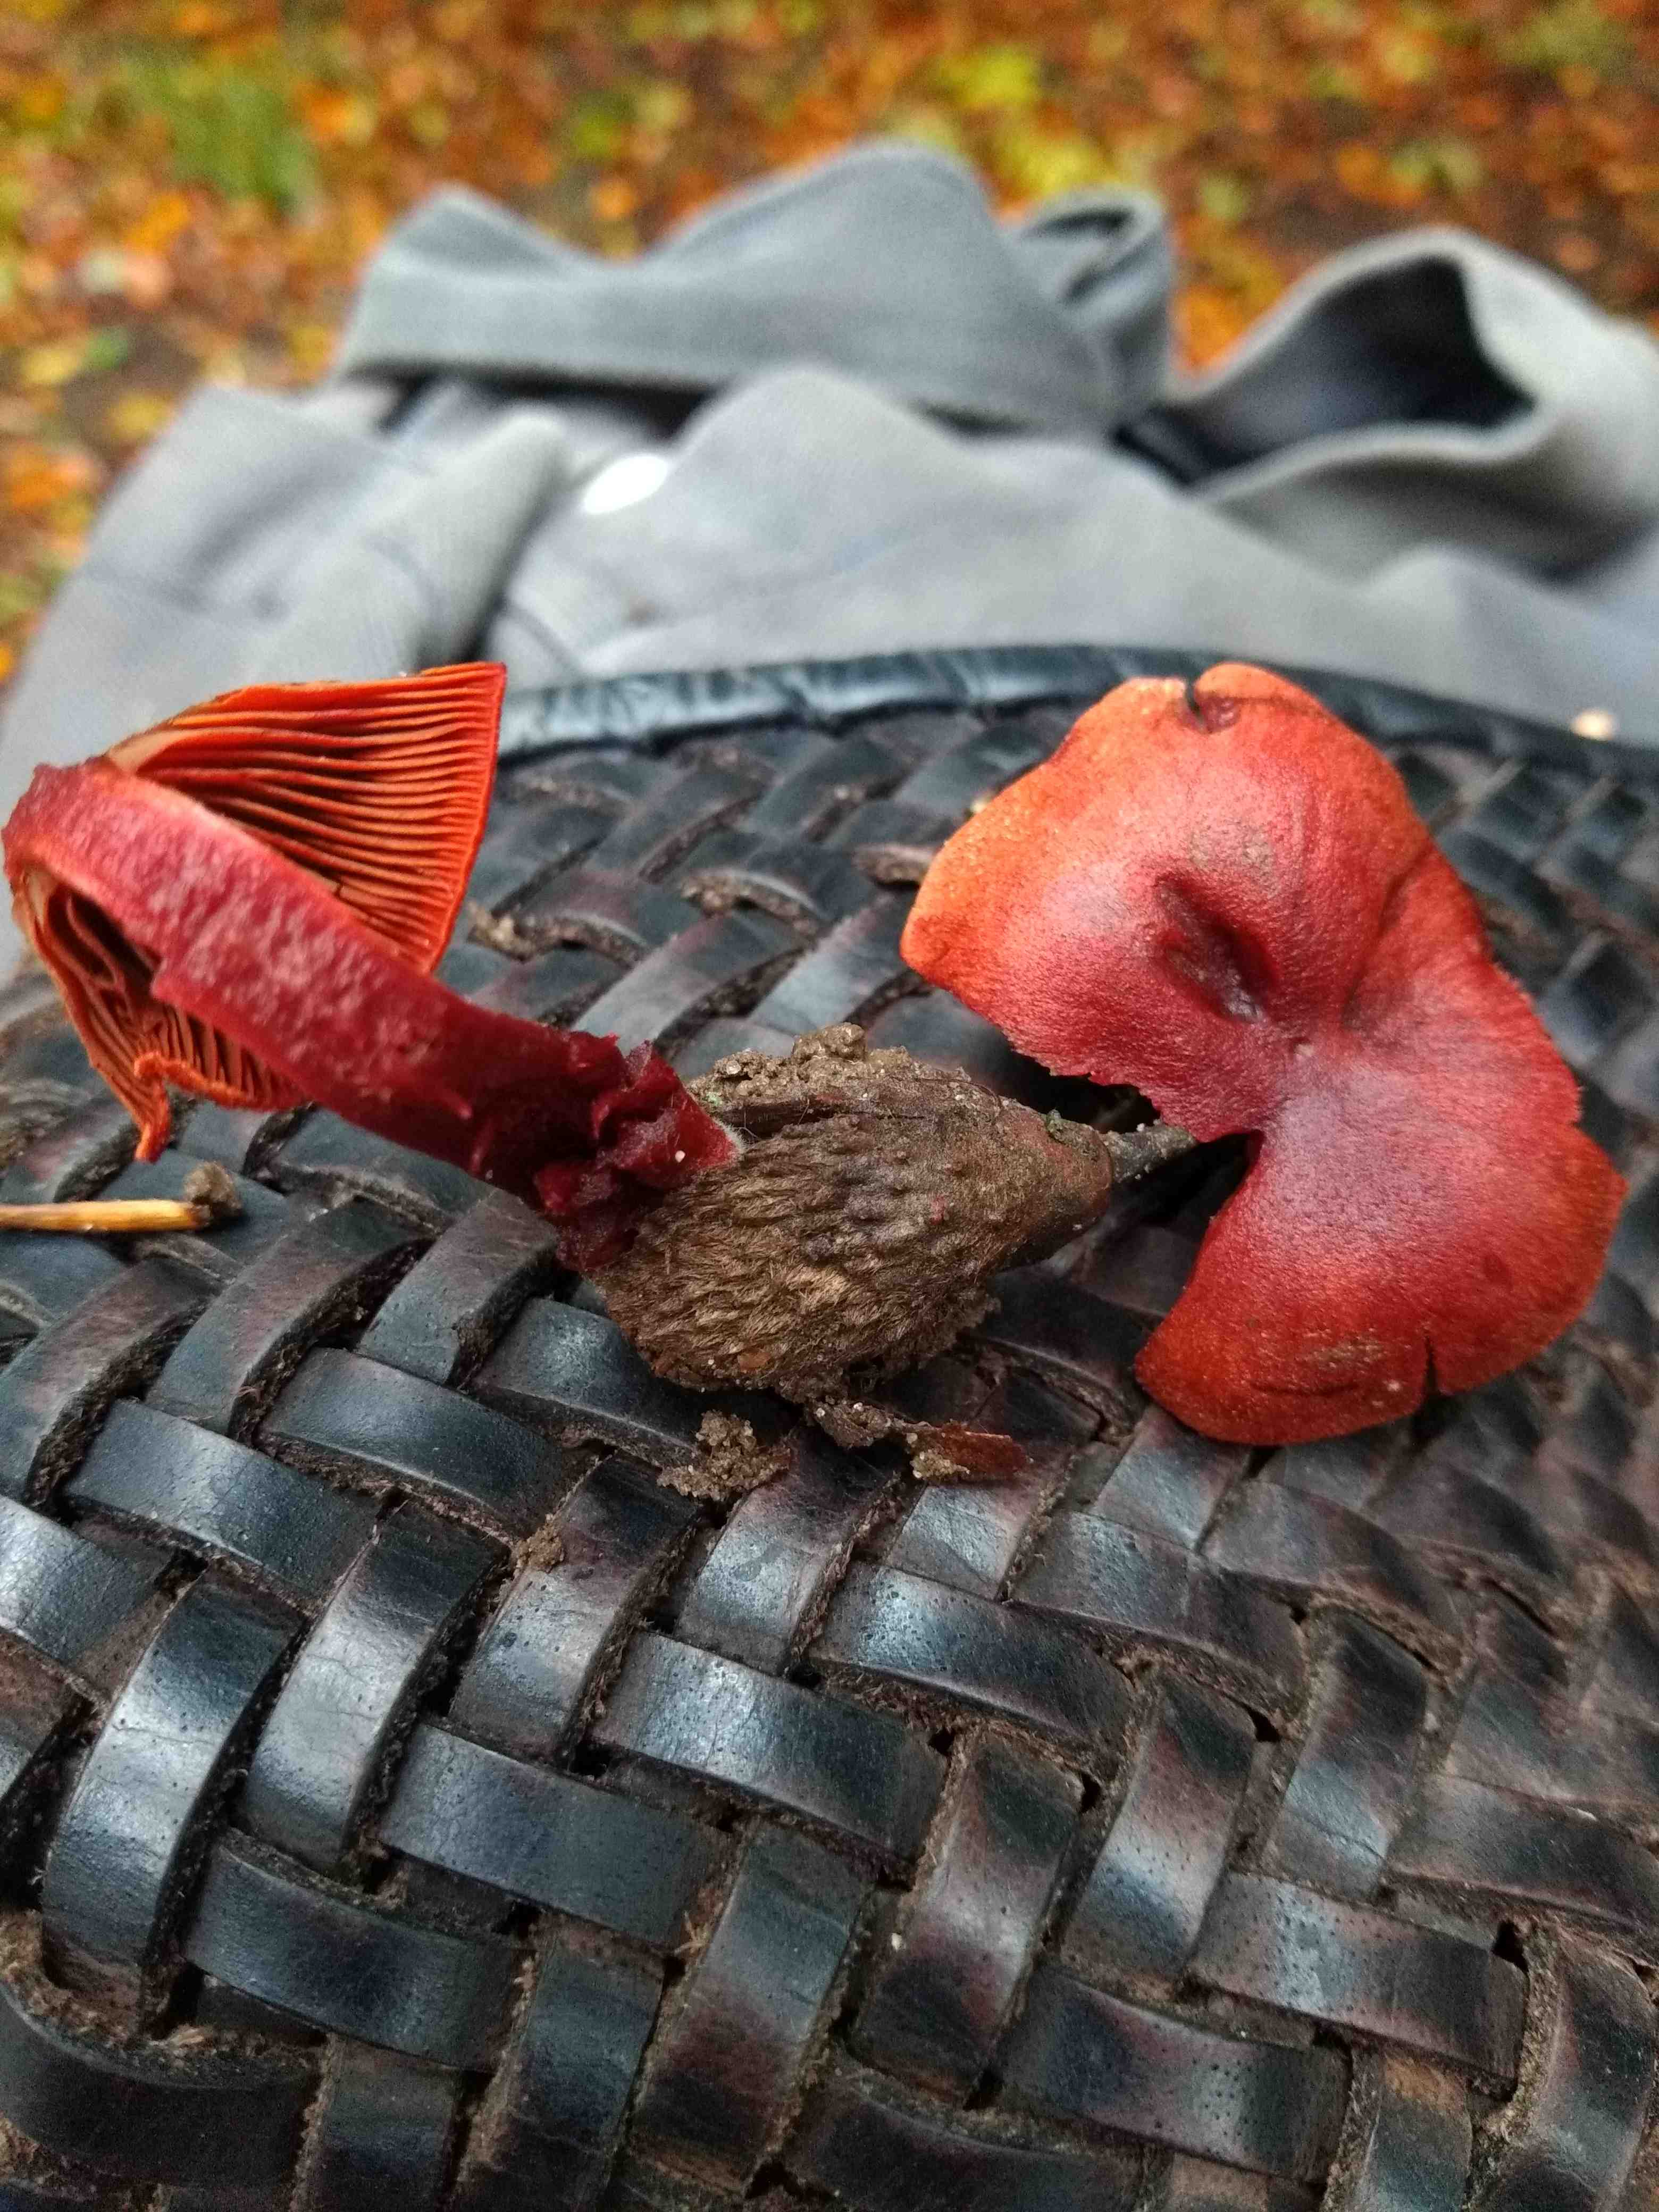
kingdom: Fungi
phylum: Basidiomycota
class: Agaricomycetes
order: Agaricales
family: Cortinariaceae
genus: Cortinarius
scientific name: Cortinarius sanguineus
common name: Bloodred webcap
